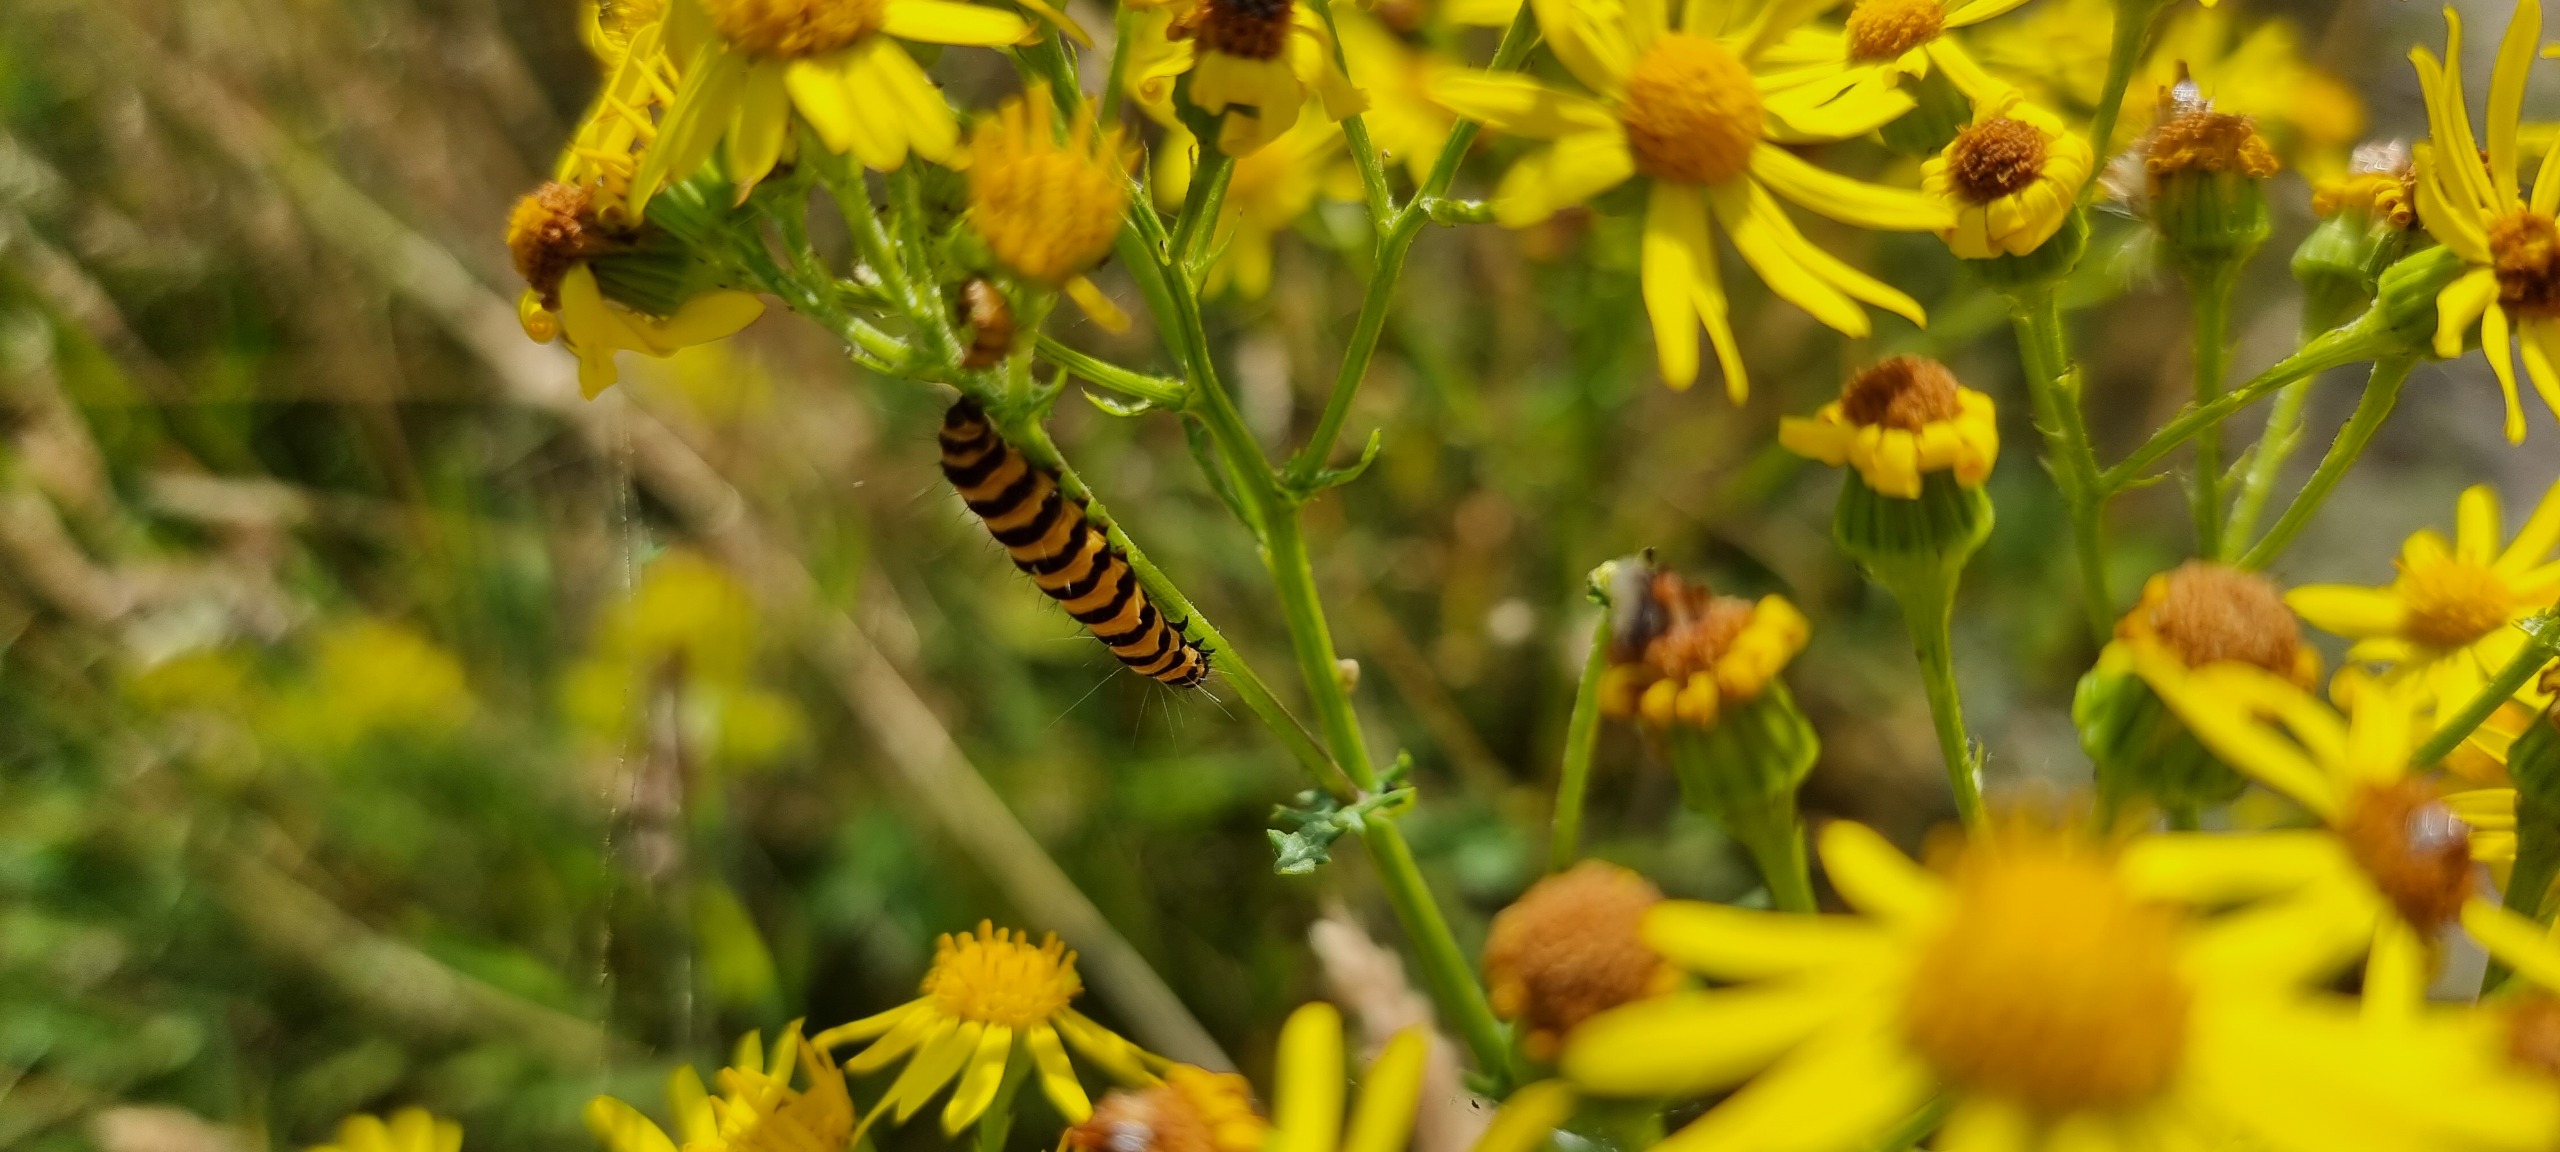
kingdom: Animalia
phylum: Arthropoda
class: Insecta
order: Lepidoptera
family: Erebidae
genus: Tyria
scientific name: Tyria jacobaeae
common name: Blodplet
